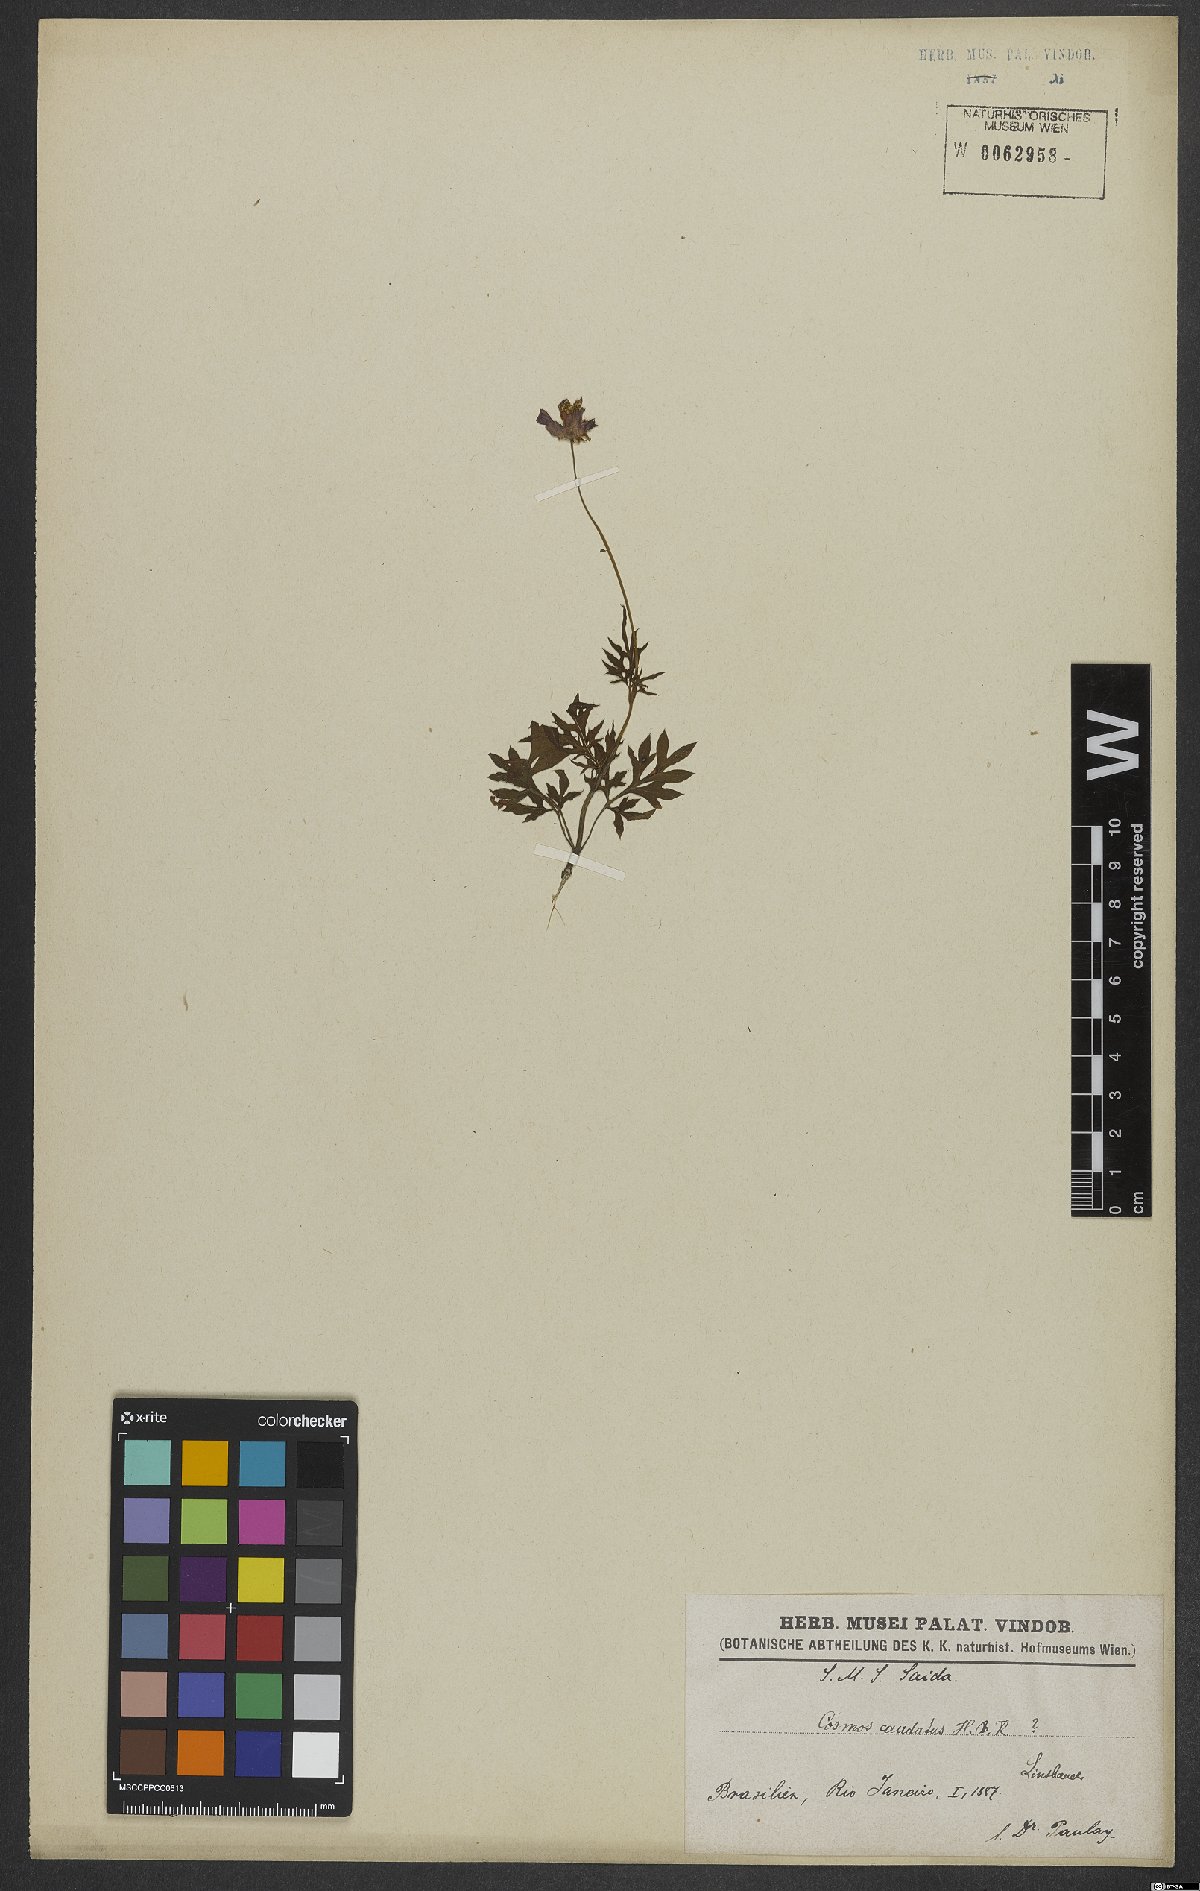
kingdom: Plantae
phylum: Tracheophyta
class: Magnoliopsida
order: Asterales
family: Asteraceae
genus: Cosmos
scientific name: Cosmos caudatus
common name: Wild cosmos
